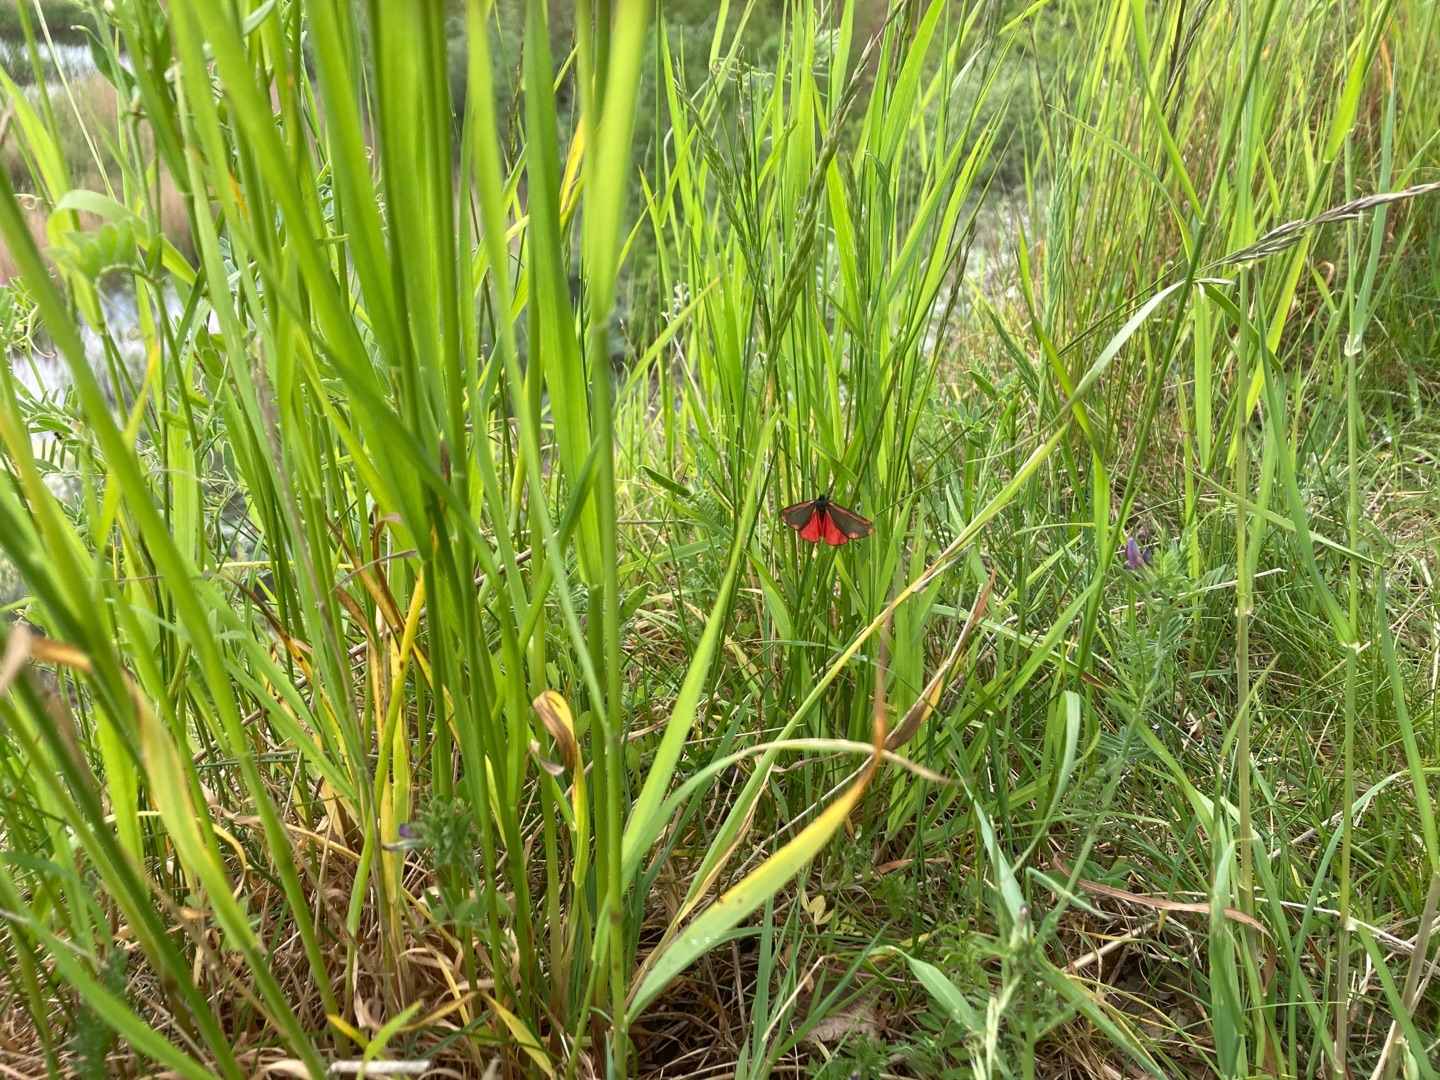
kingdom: Animalia
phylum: Arthropoda
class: Insecta
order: Lepidoptera
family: Erebidae
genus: Tyria
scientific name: Tyria jacobaeae
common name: Blodplet
